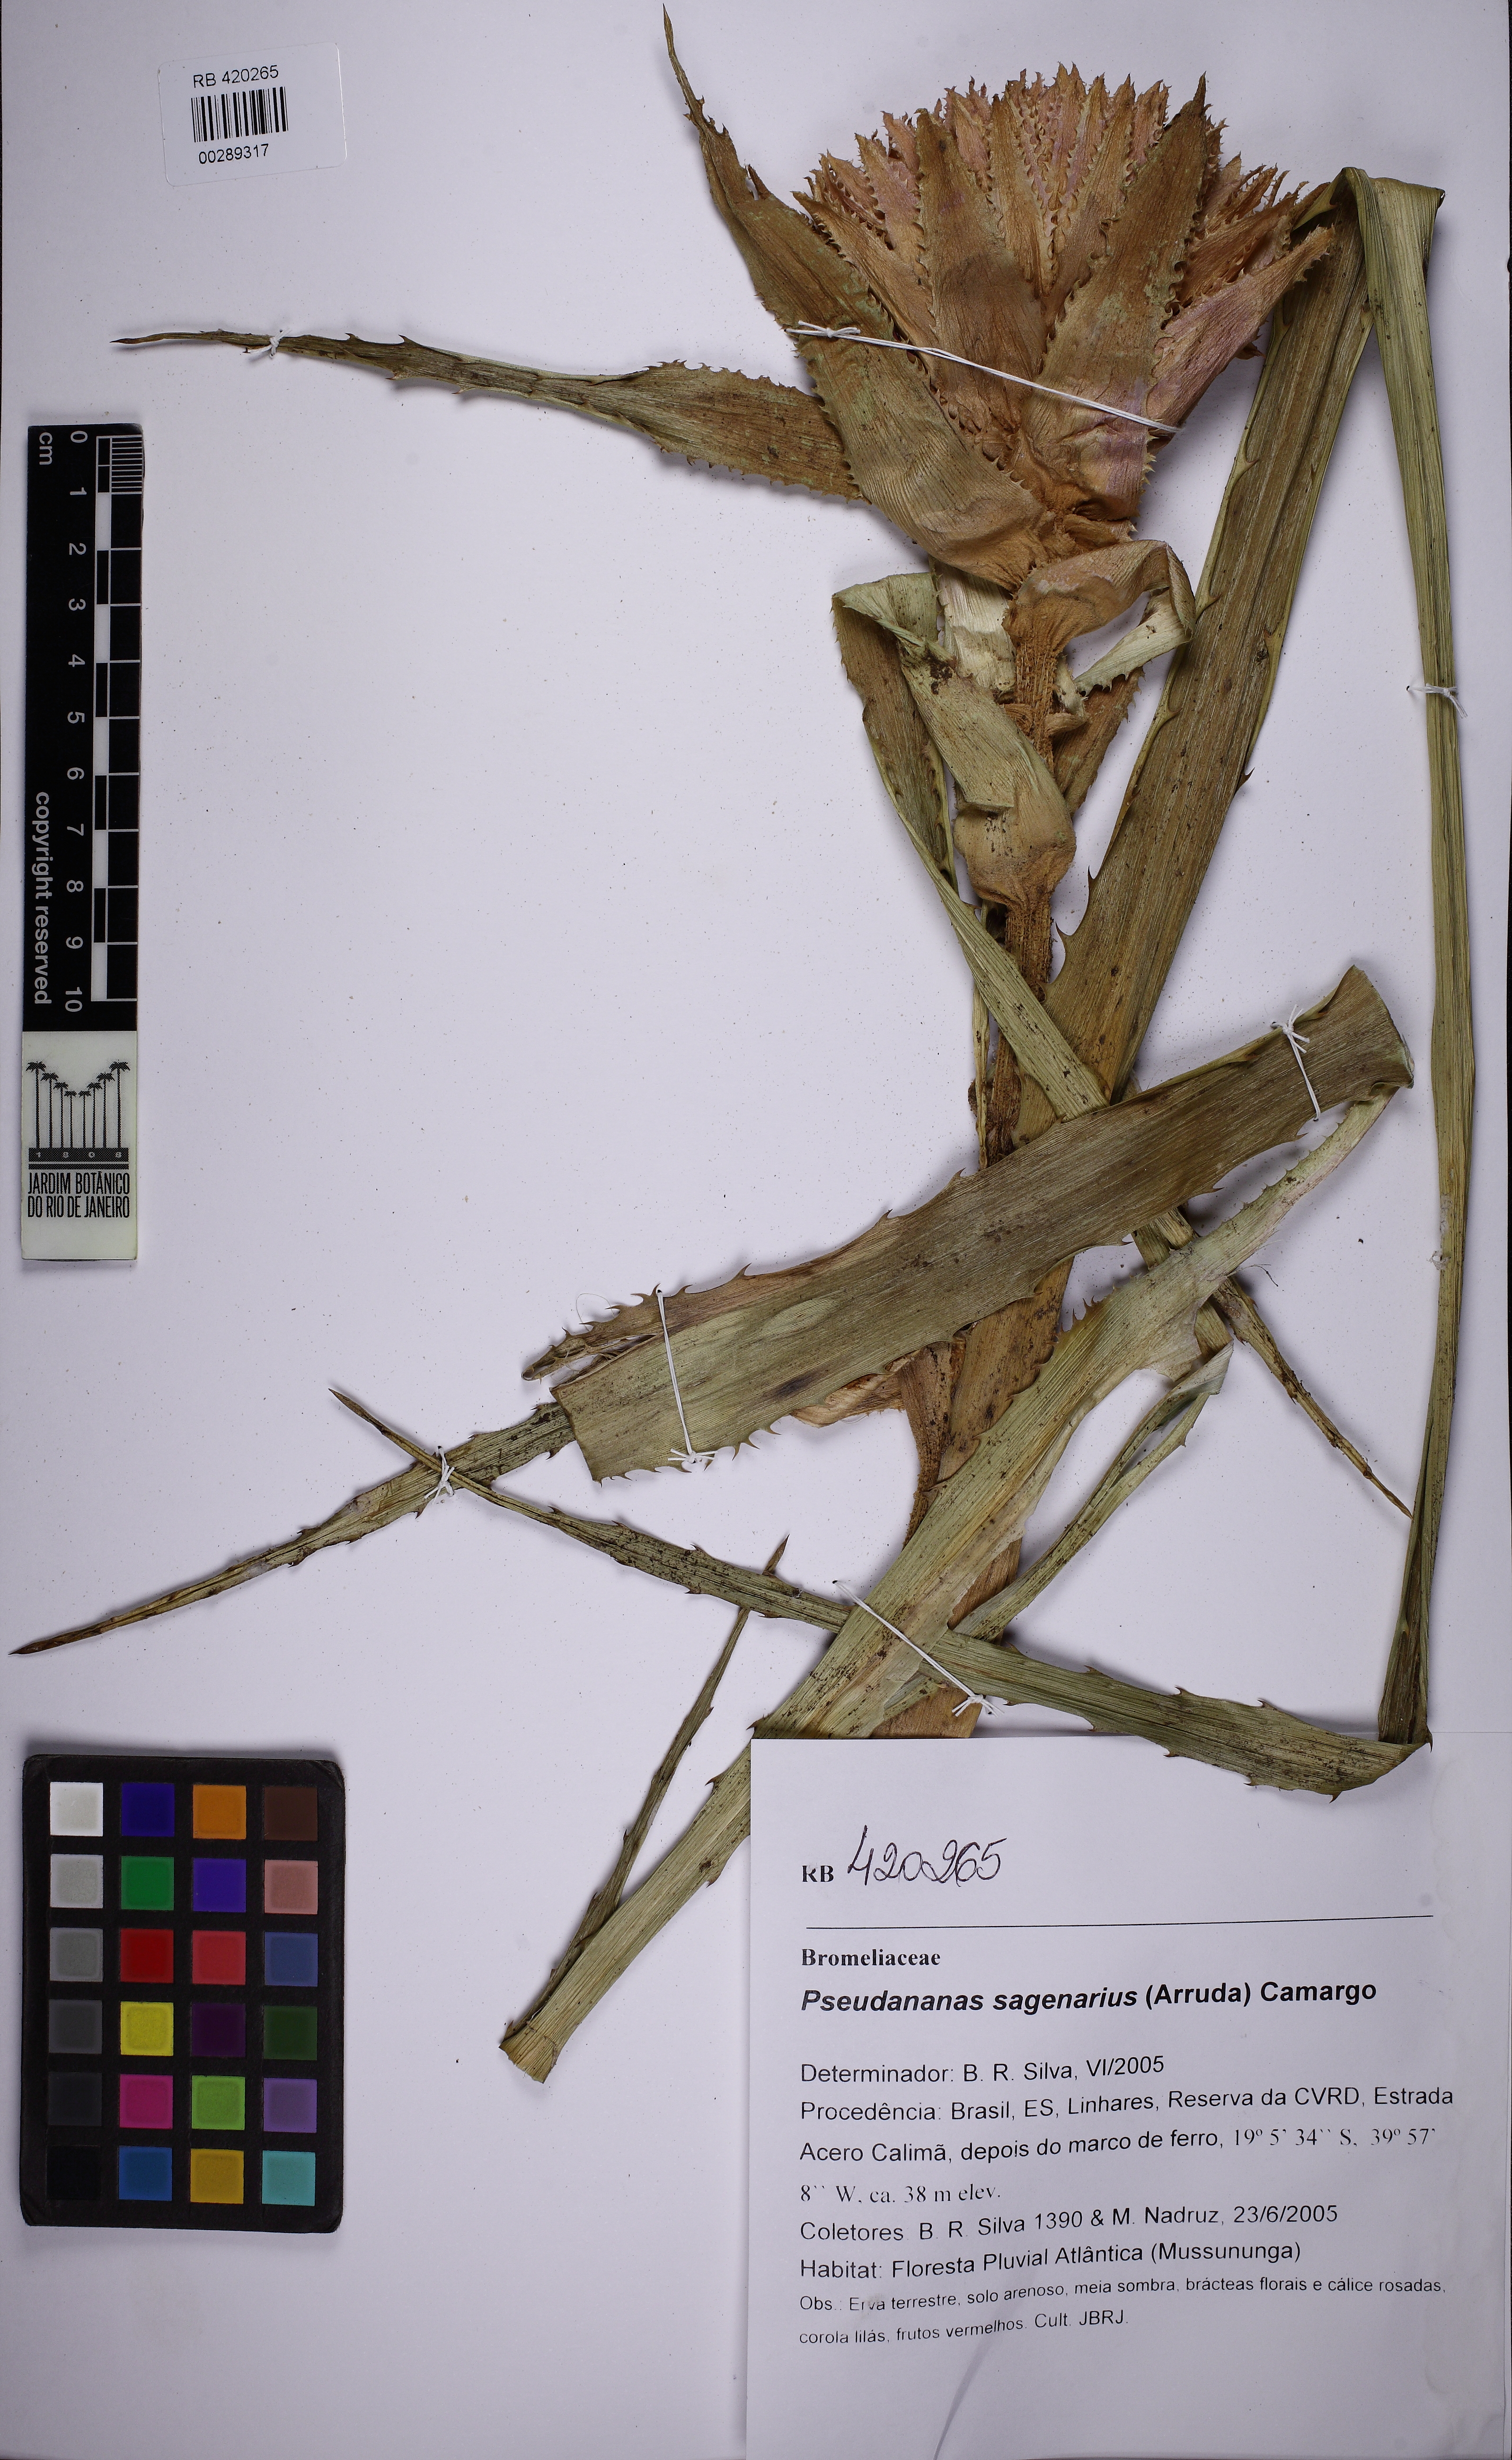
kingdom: Plantae
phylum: Tracheophyta
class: Liliopsida
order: Poales
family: Bromeliaceae
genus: Ananas
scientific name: Ananas comosus
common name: Pineapple
